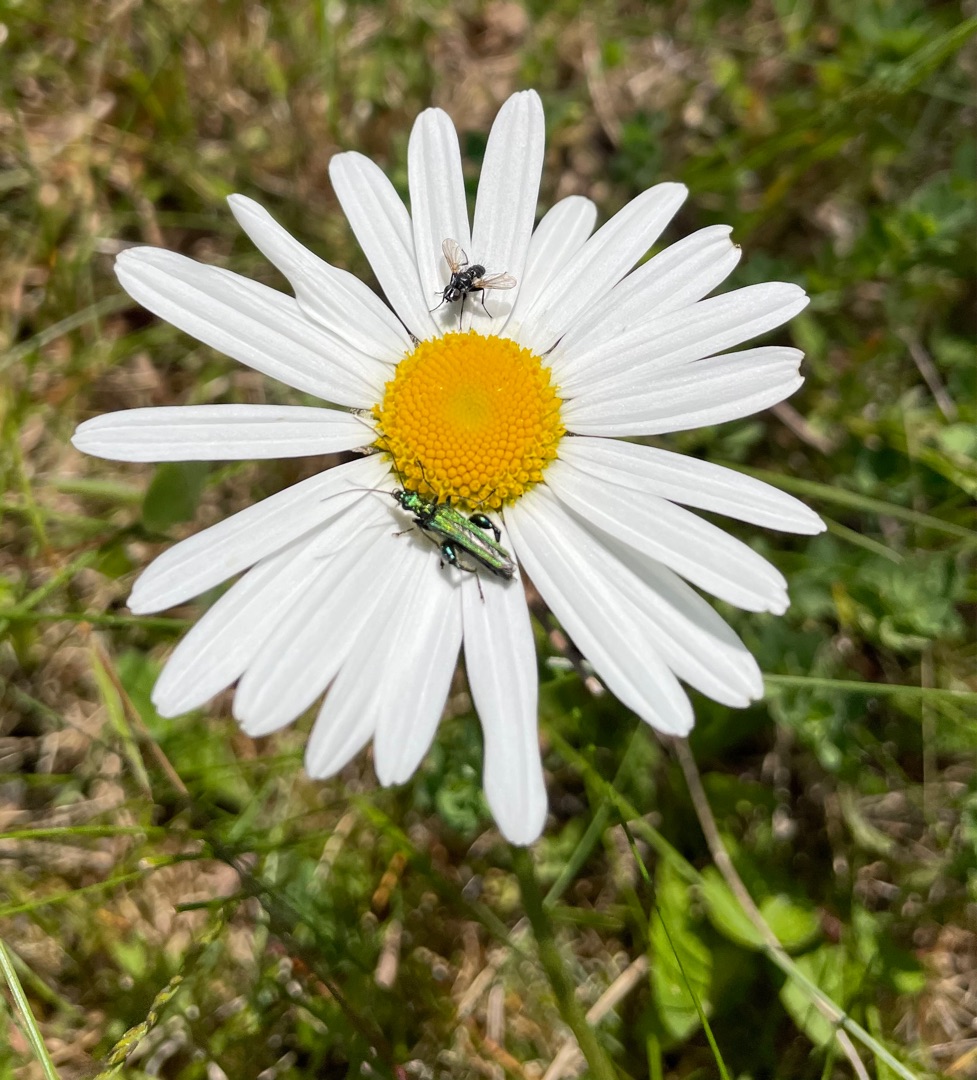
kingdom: Animalia
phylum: Arthropoda
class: Insecta
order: Coleoptera
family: Oedemeridae
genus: Oedemera
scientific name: Oedemera nobilis
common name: Tyklårssolbille
